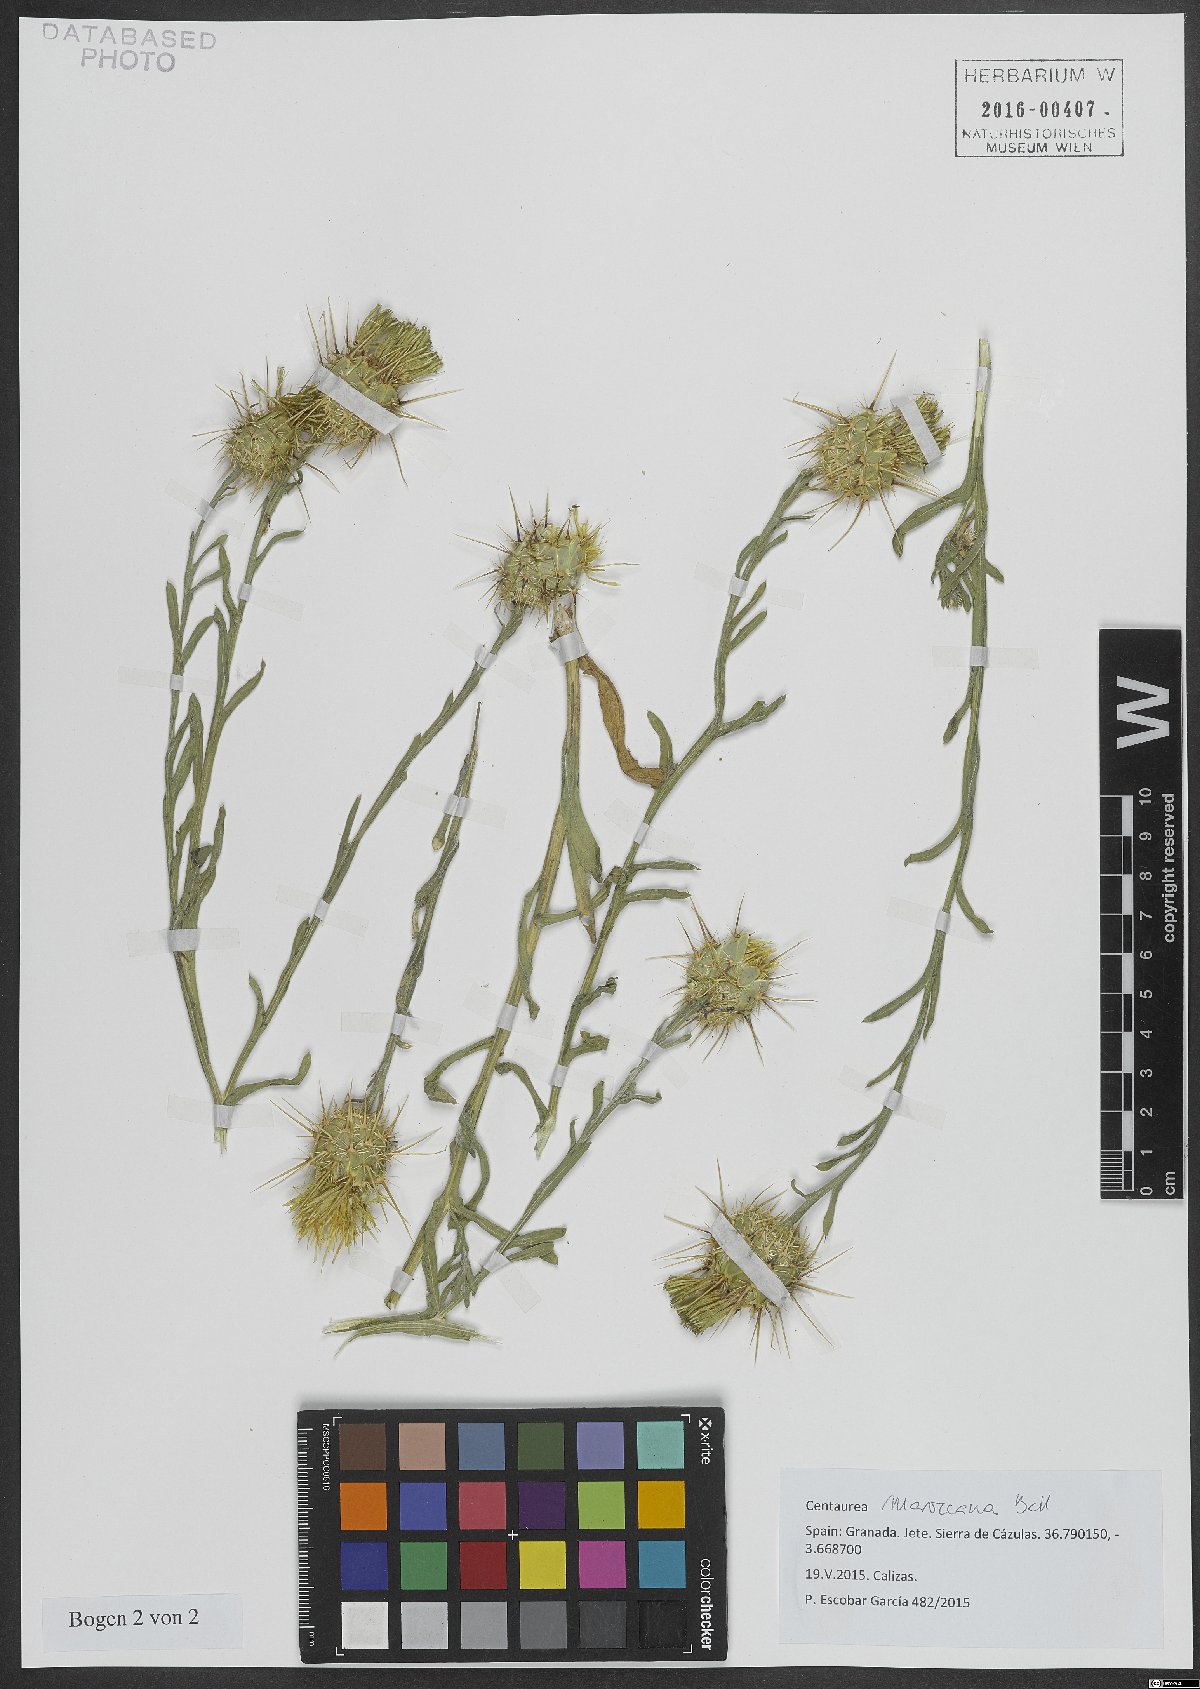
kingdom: Plantae
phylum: Tracheophyta
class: Magnoliopsida
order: Asterales
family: Asteraceae
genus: Centaurea
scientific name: Centaurea maroccana
